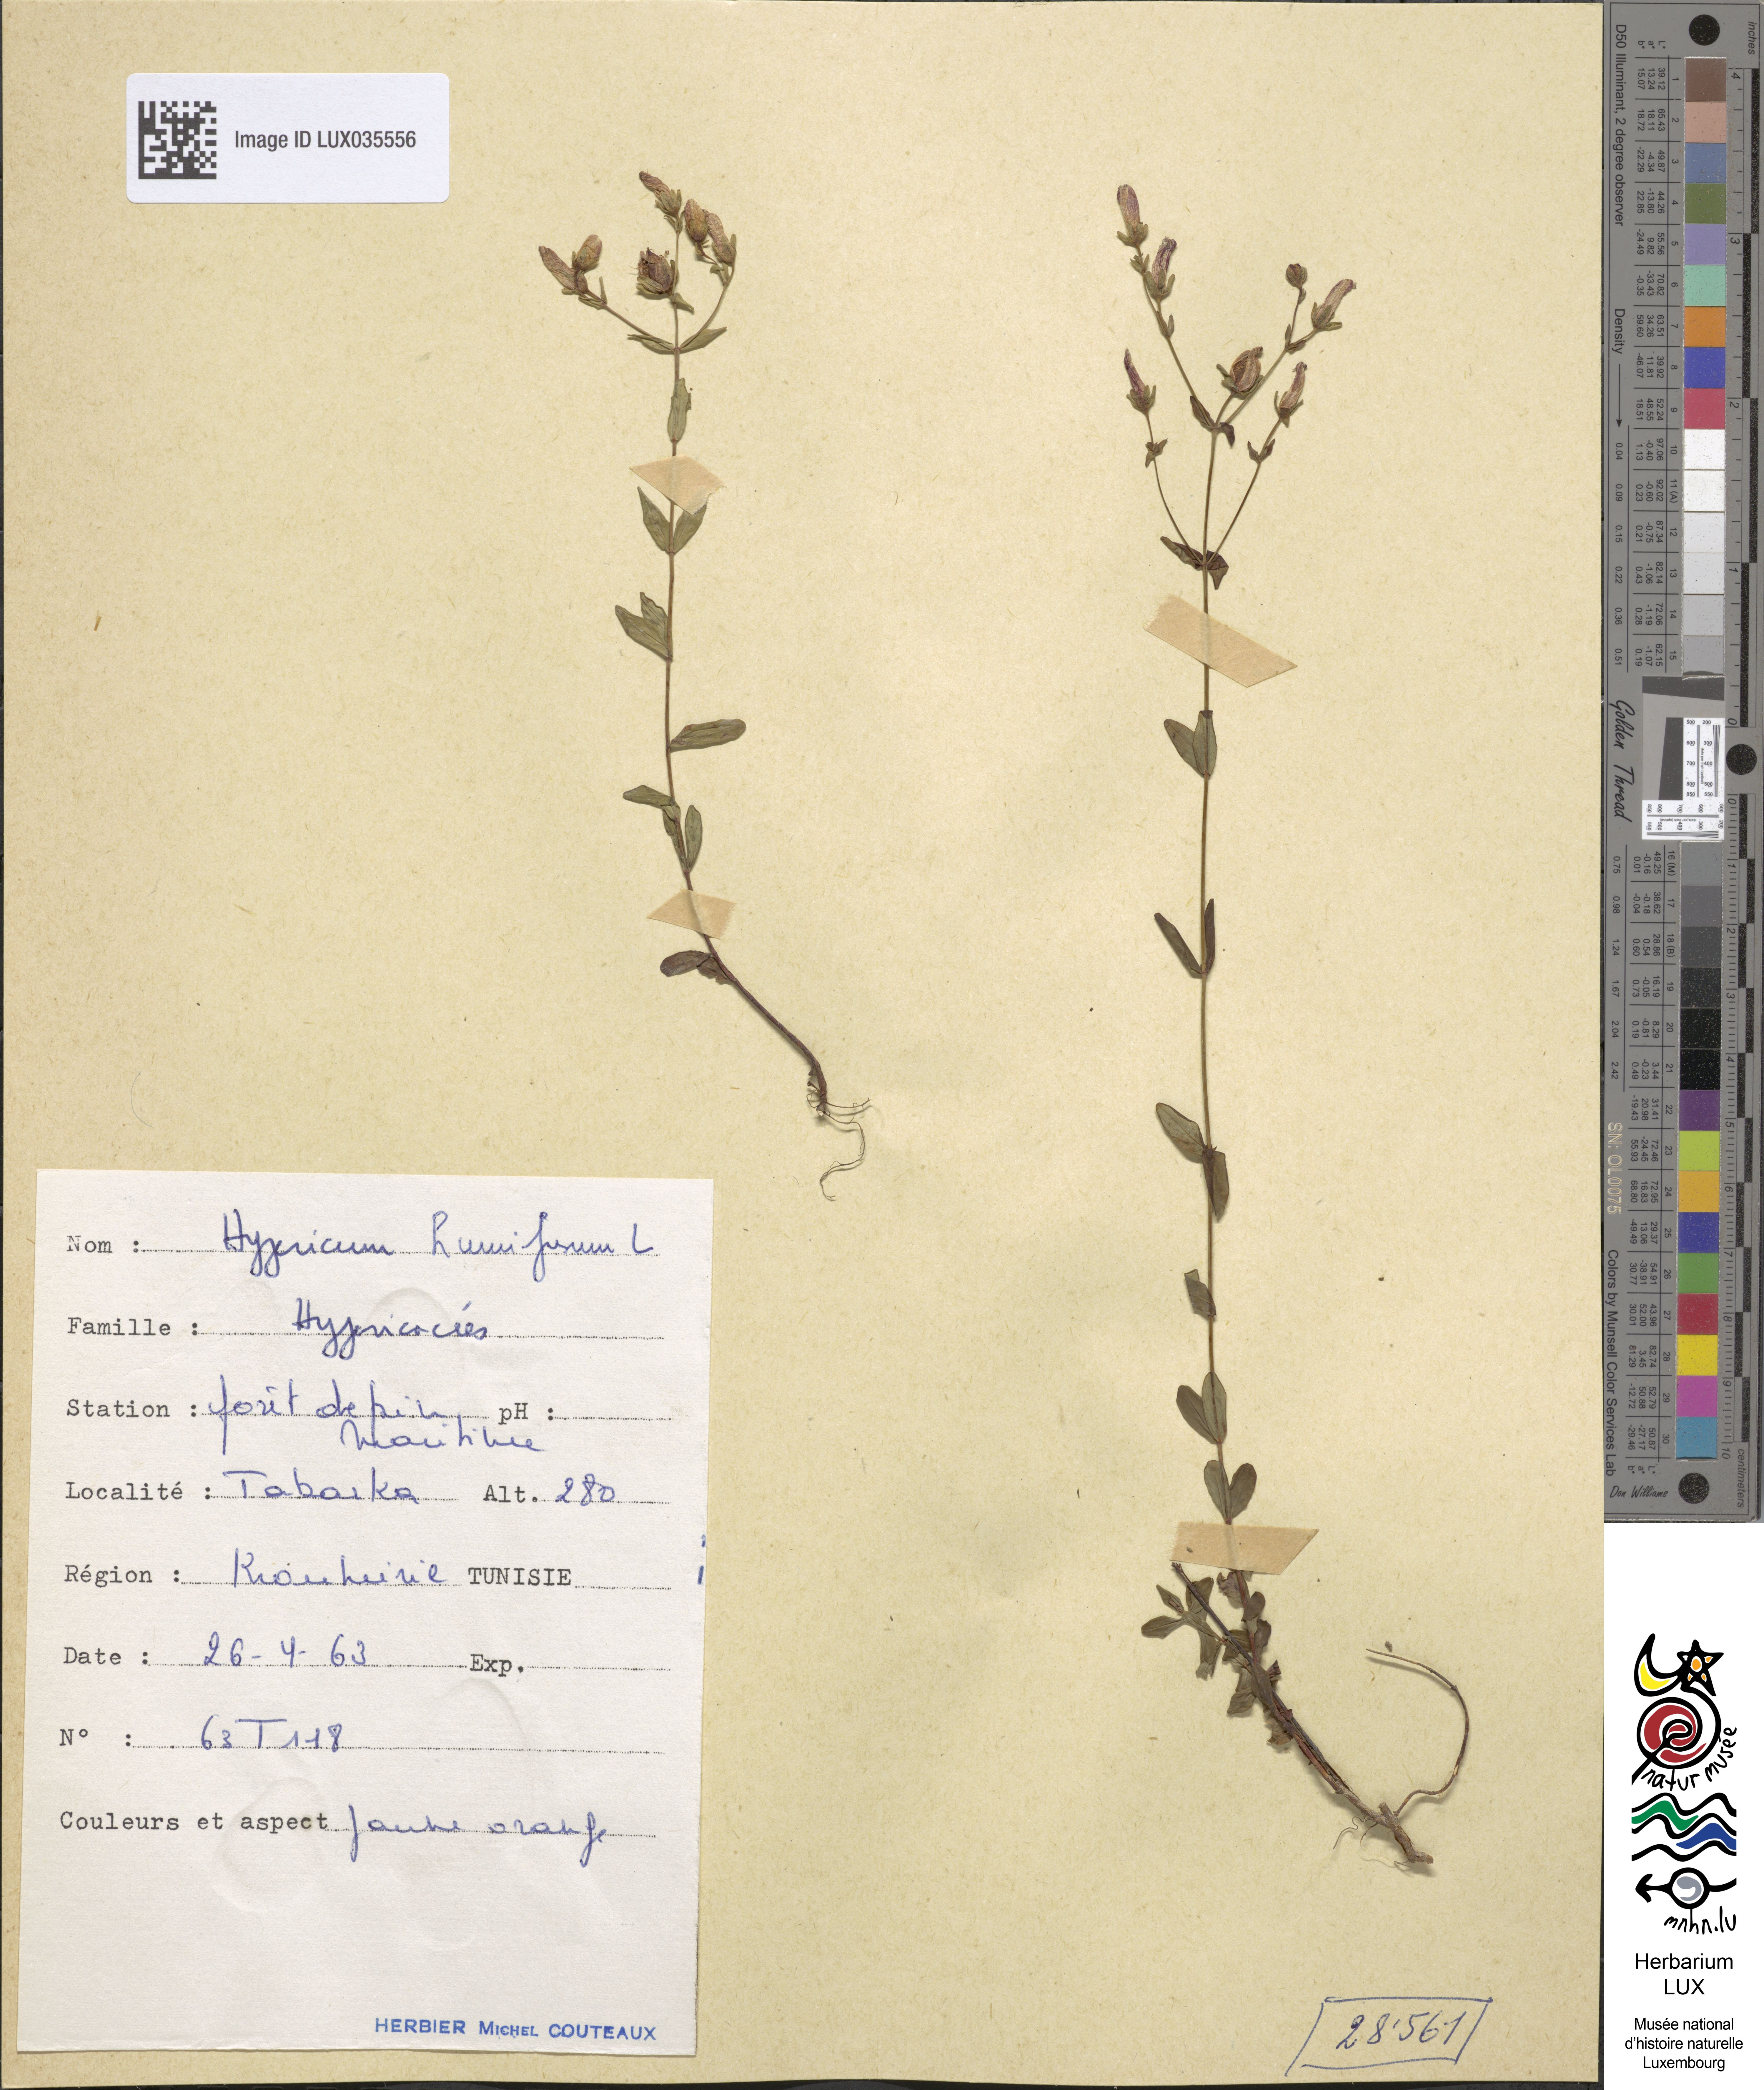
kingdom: Plantae
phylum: Tracheophyta
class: Magnoliopsida
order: Malpighiales
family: Hypericaceae
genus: Hypericum
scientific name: Hypericum humifusum
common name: Trailing st. john's-wort
